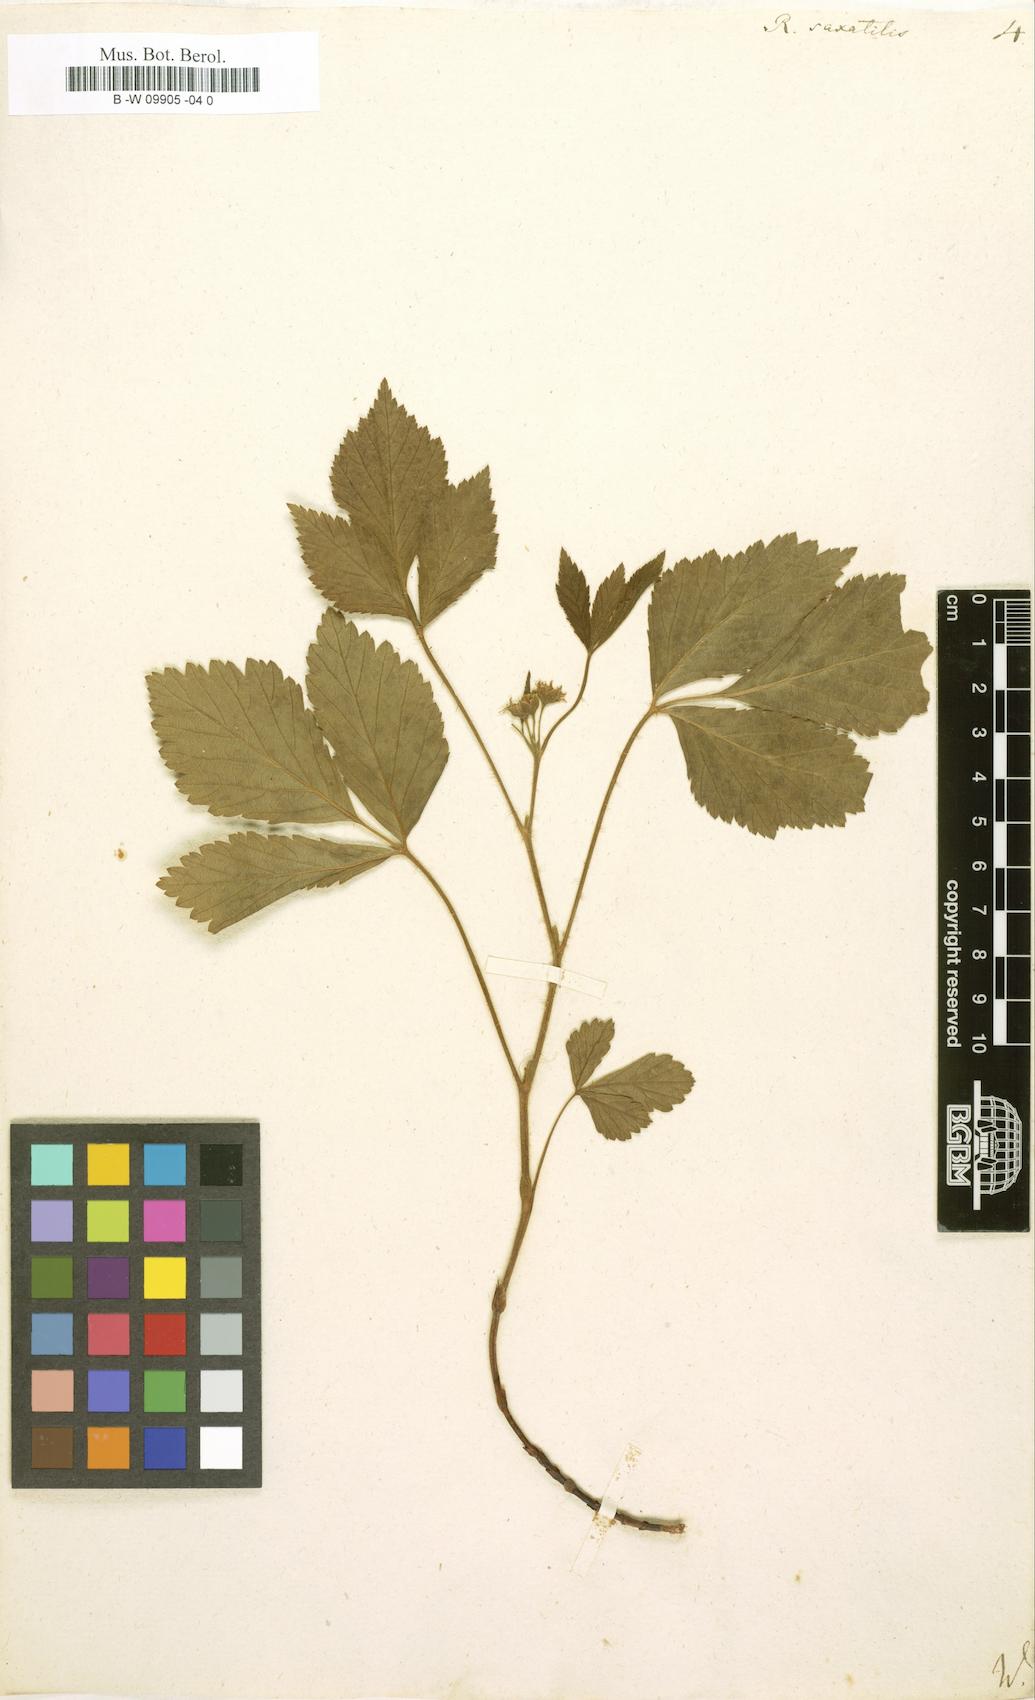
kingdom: Plantae
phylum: Tracheophyta
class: Magnoliopsida
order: Rosales
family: Rosaceae
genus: Rubus
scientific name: Rubus saxatilis
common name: Stone bramble
